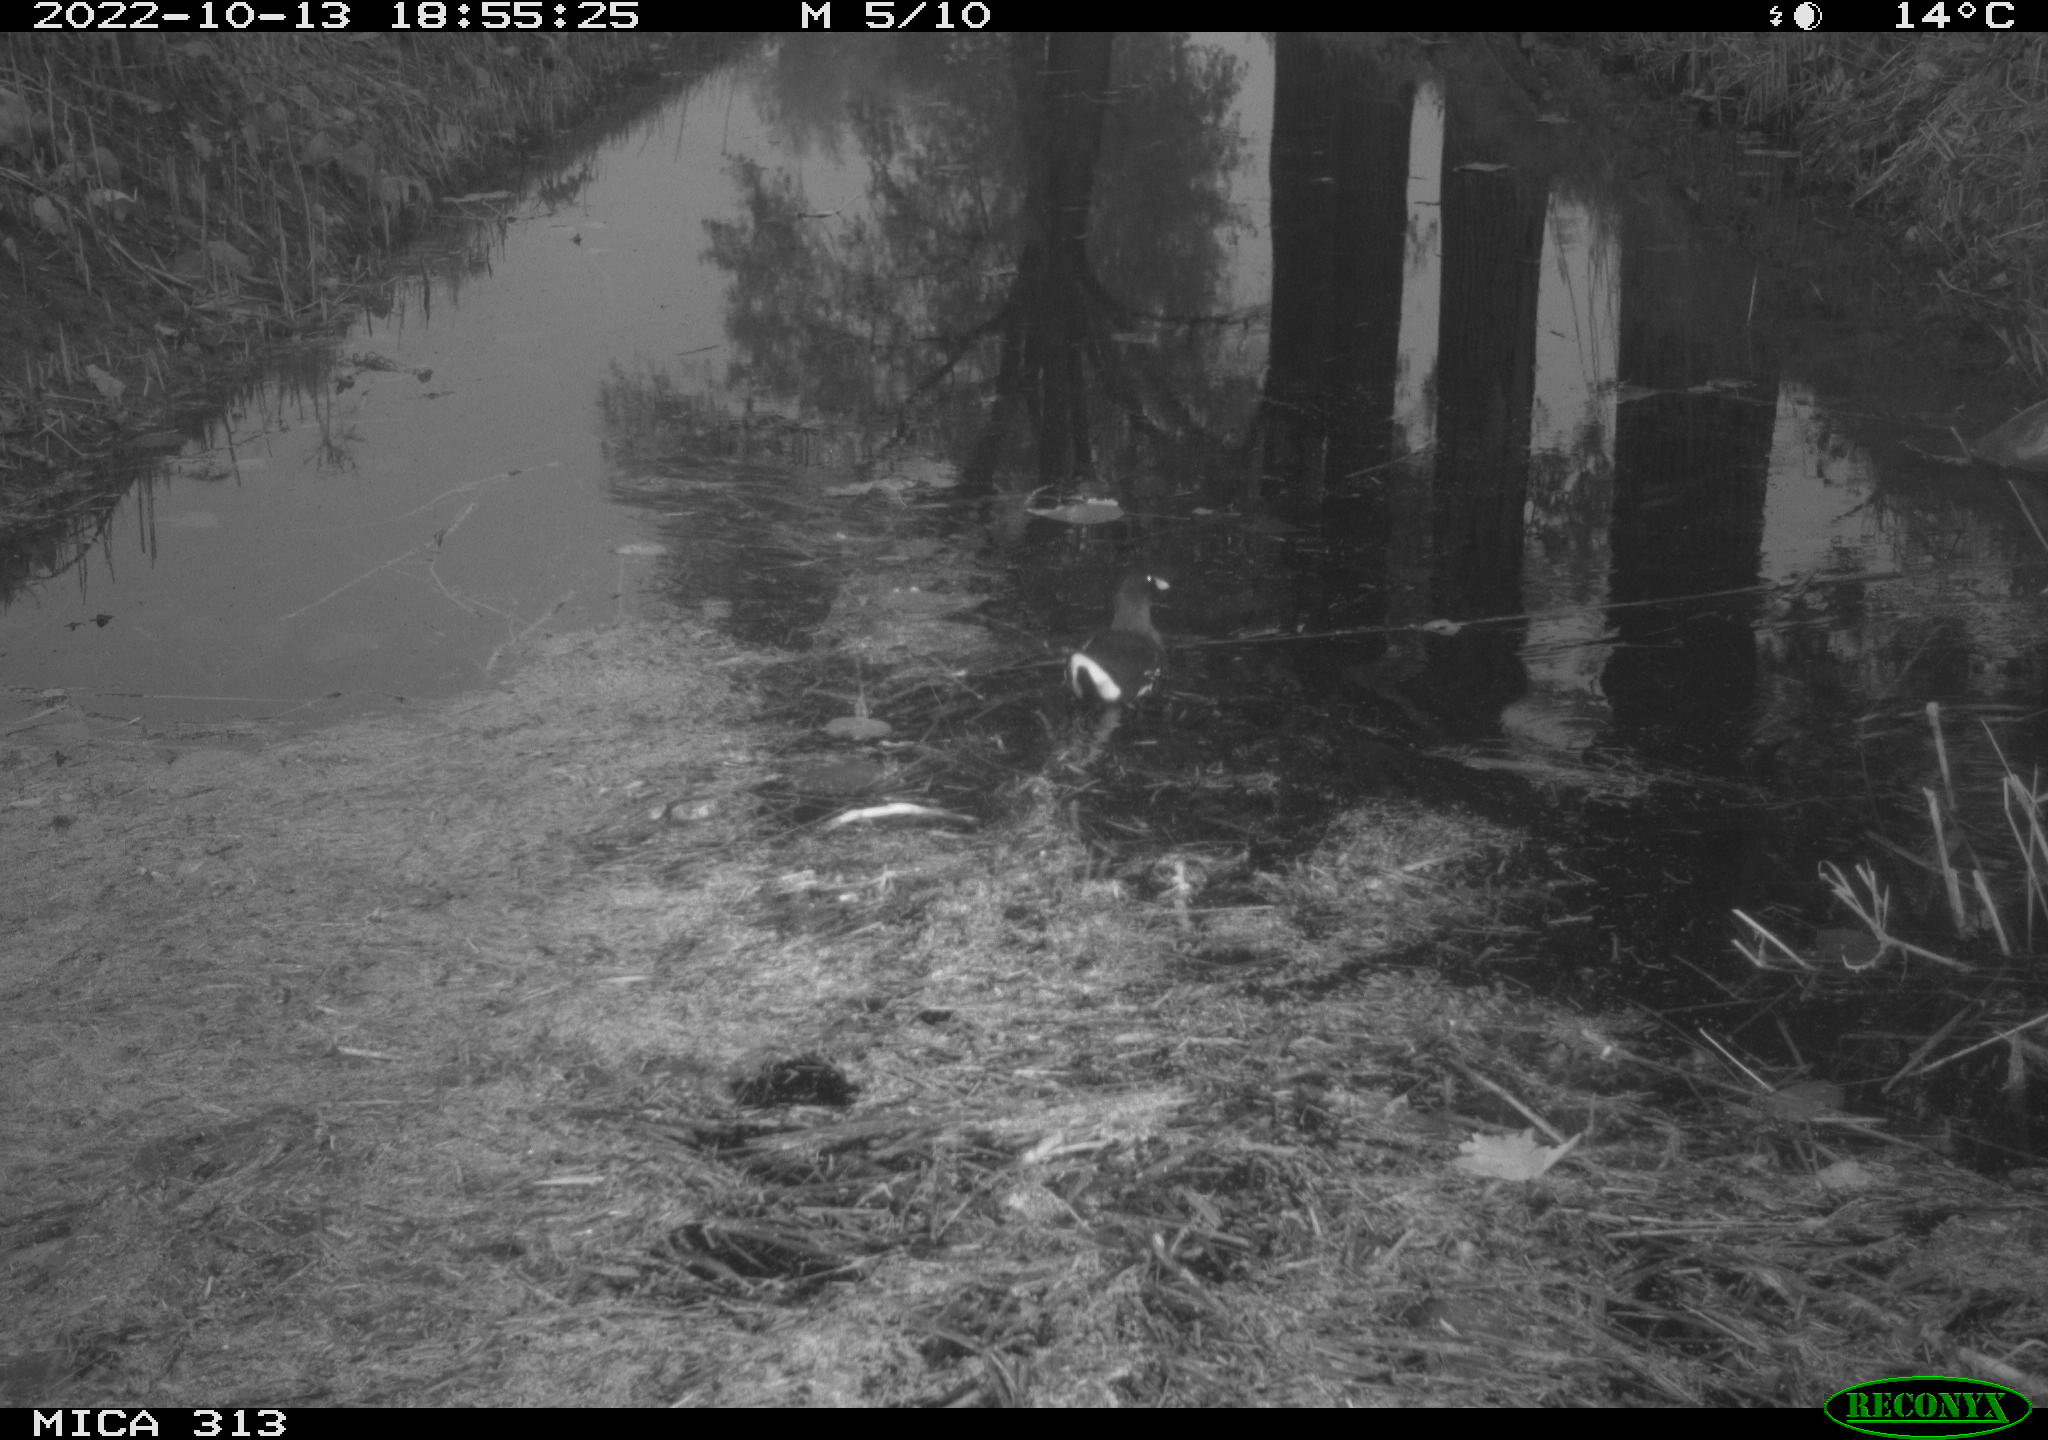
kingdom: Animalia
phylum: Chordata
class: Aves
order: Gruiformes
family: Rallidae
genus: Gallinula
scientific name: Gallinula chloropus
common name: Common moorhen
